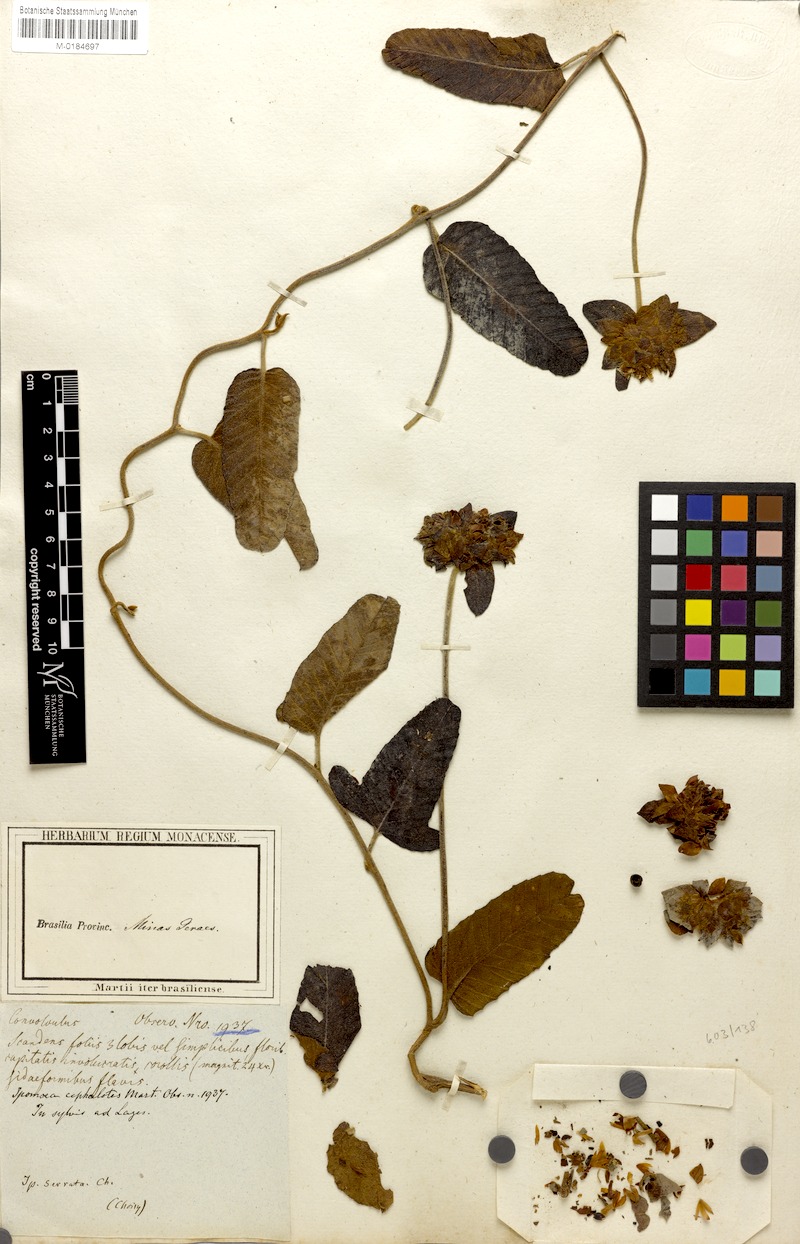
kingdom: Plantae
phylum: Tracheophyta
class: Magnoliopsida
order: Solanales
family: Convolvulaceae
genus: Daustinia
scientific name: Daustinia montana
